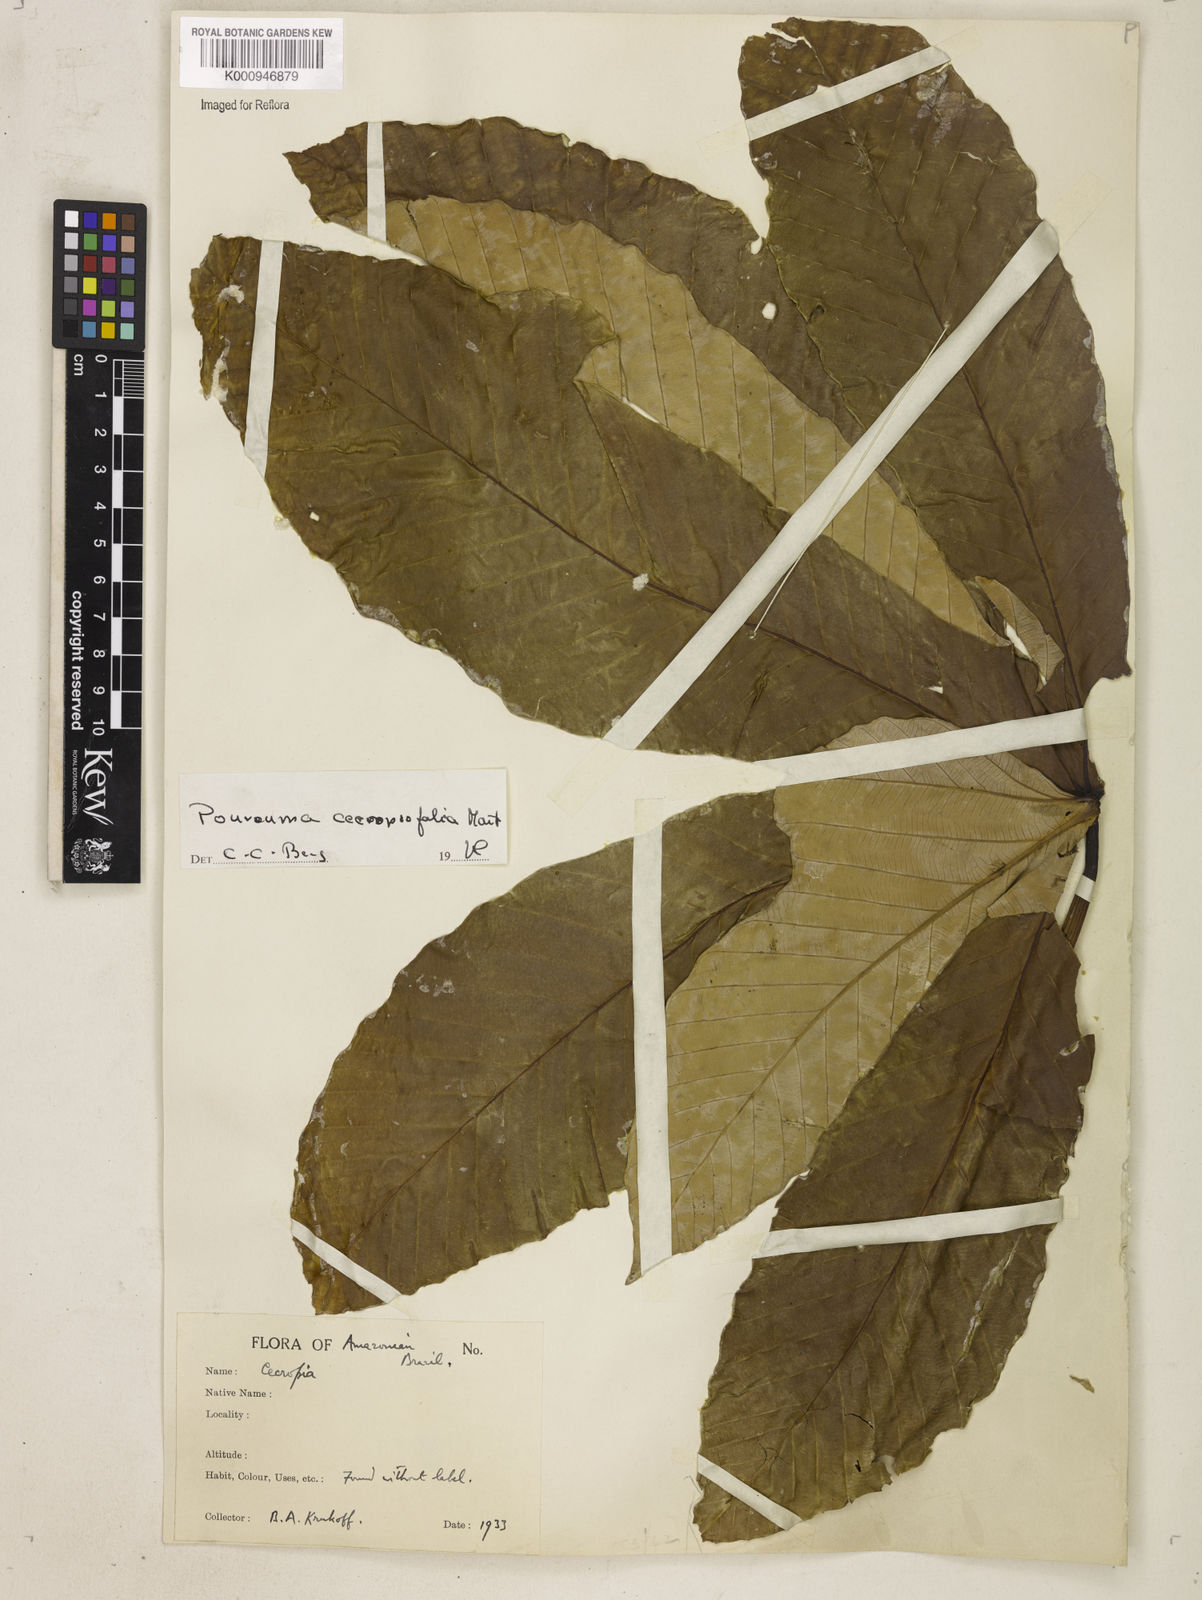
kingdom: Plantae
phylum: Tracheophyta
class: Magnoliopsida
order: Rosales
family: Urticaceae
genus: Pourouma
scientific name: Pourouma cecropiifolia
